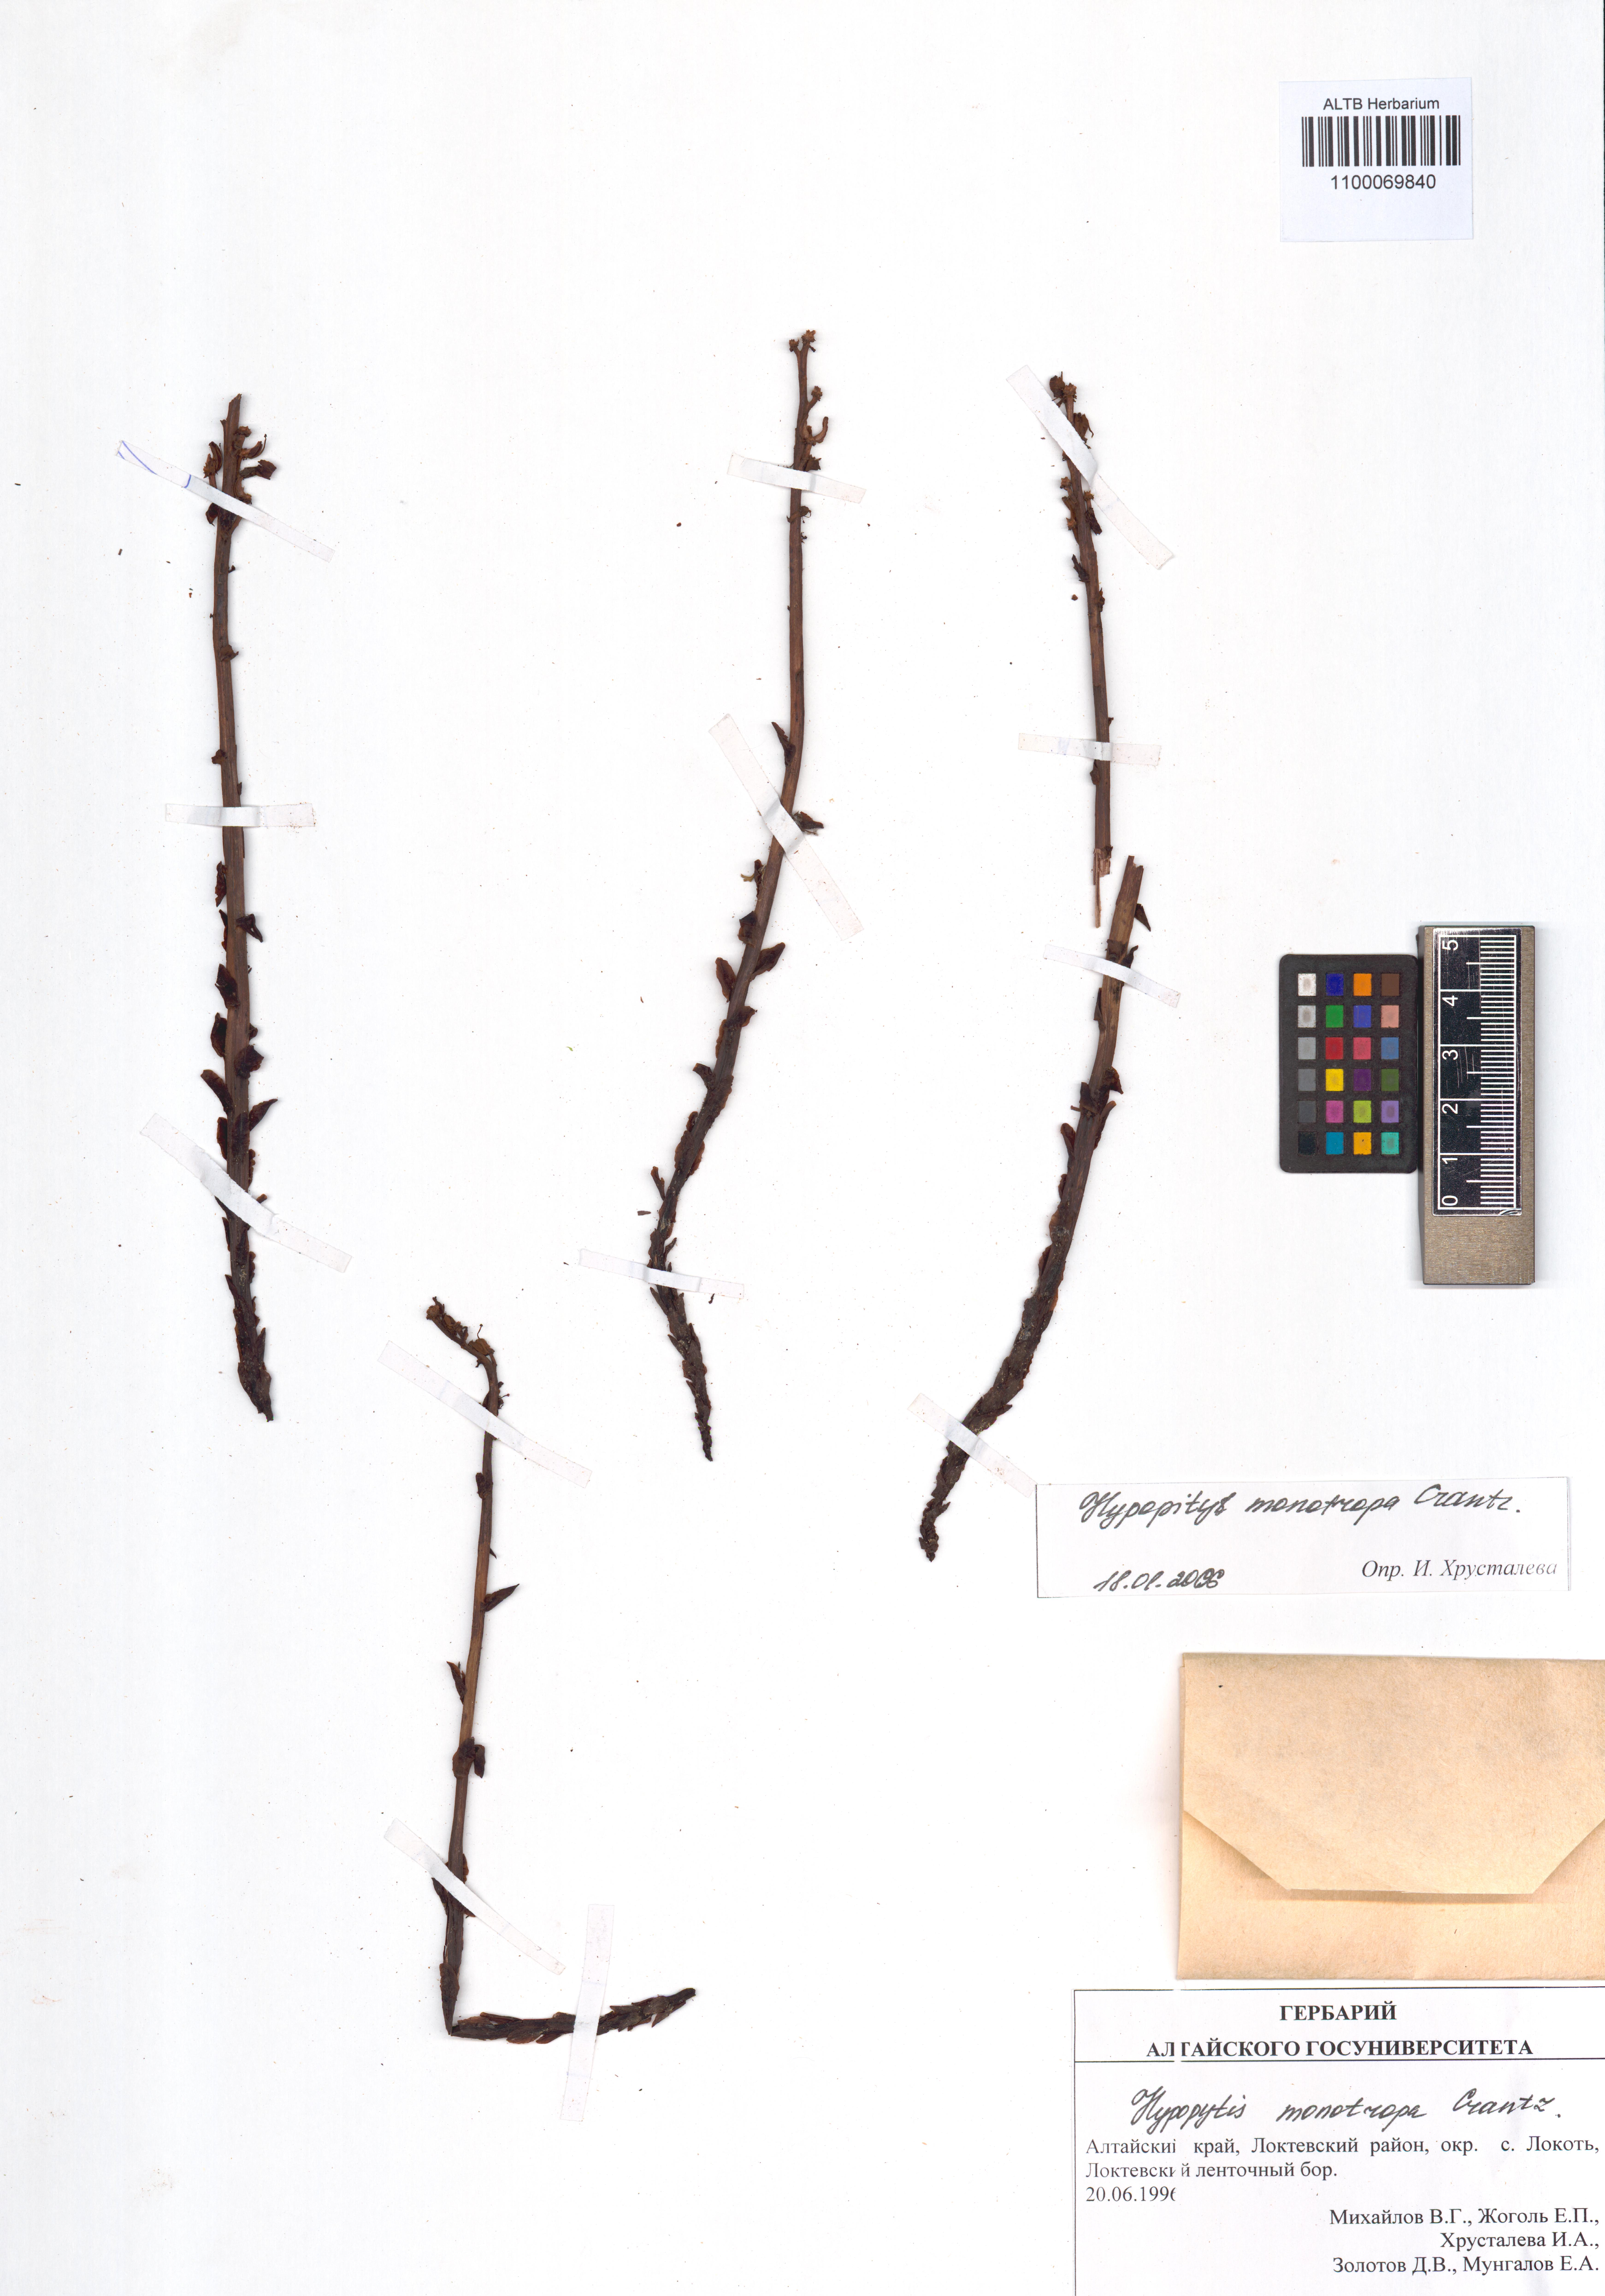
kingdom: Plantae
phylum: Tracheophyta
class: Magnoliopsida
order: Ericales
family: Ericaceae
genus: Hypopitys
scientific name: Hypopitys monotropa
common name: Yellow bird's-nest
